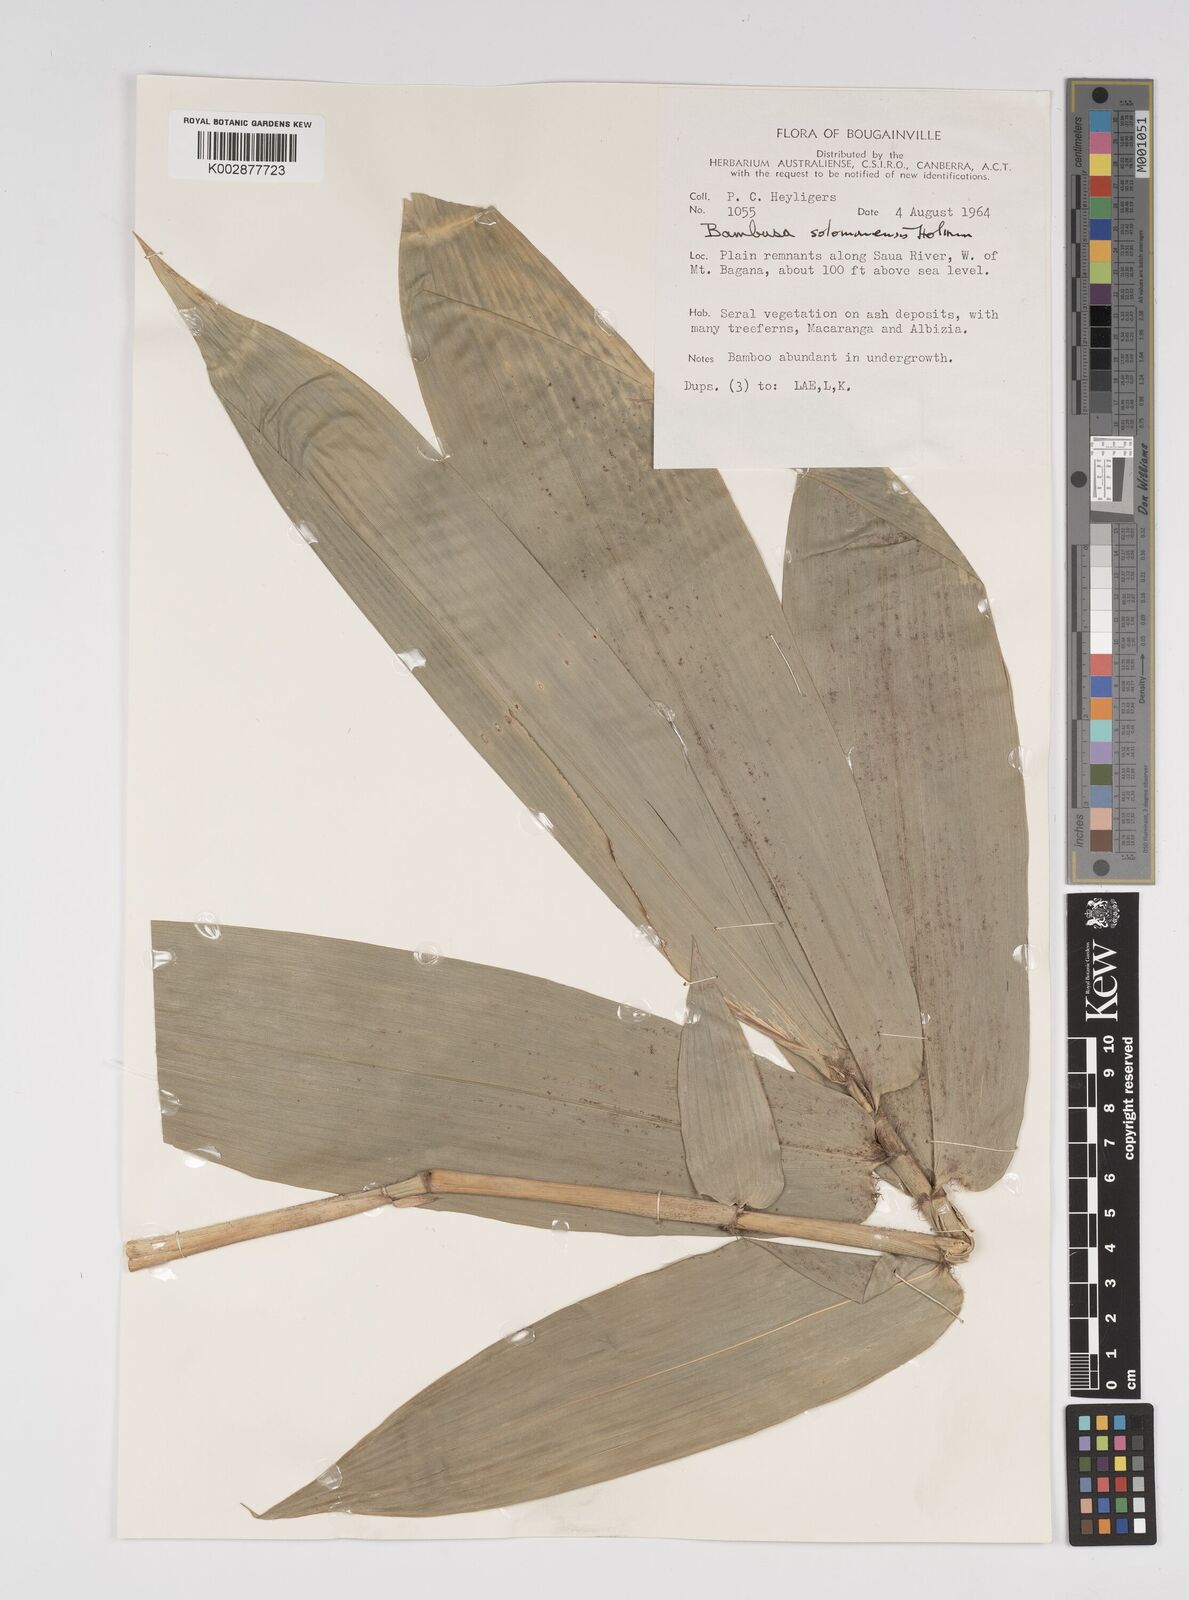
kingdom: Plantae
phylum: Tracheophyta
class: Liliopsida
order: Poales
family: Poaceae
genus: Bambusa
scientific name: Bambusa solomonensis
